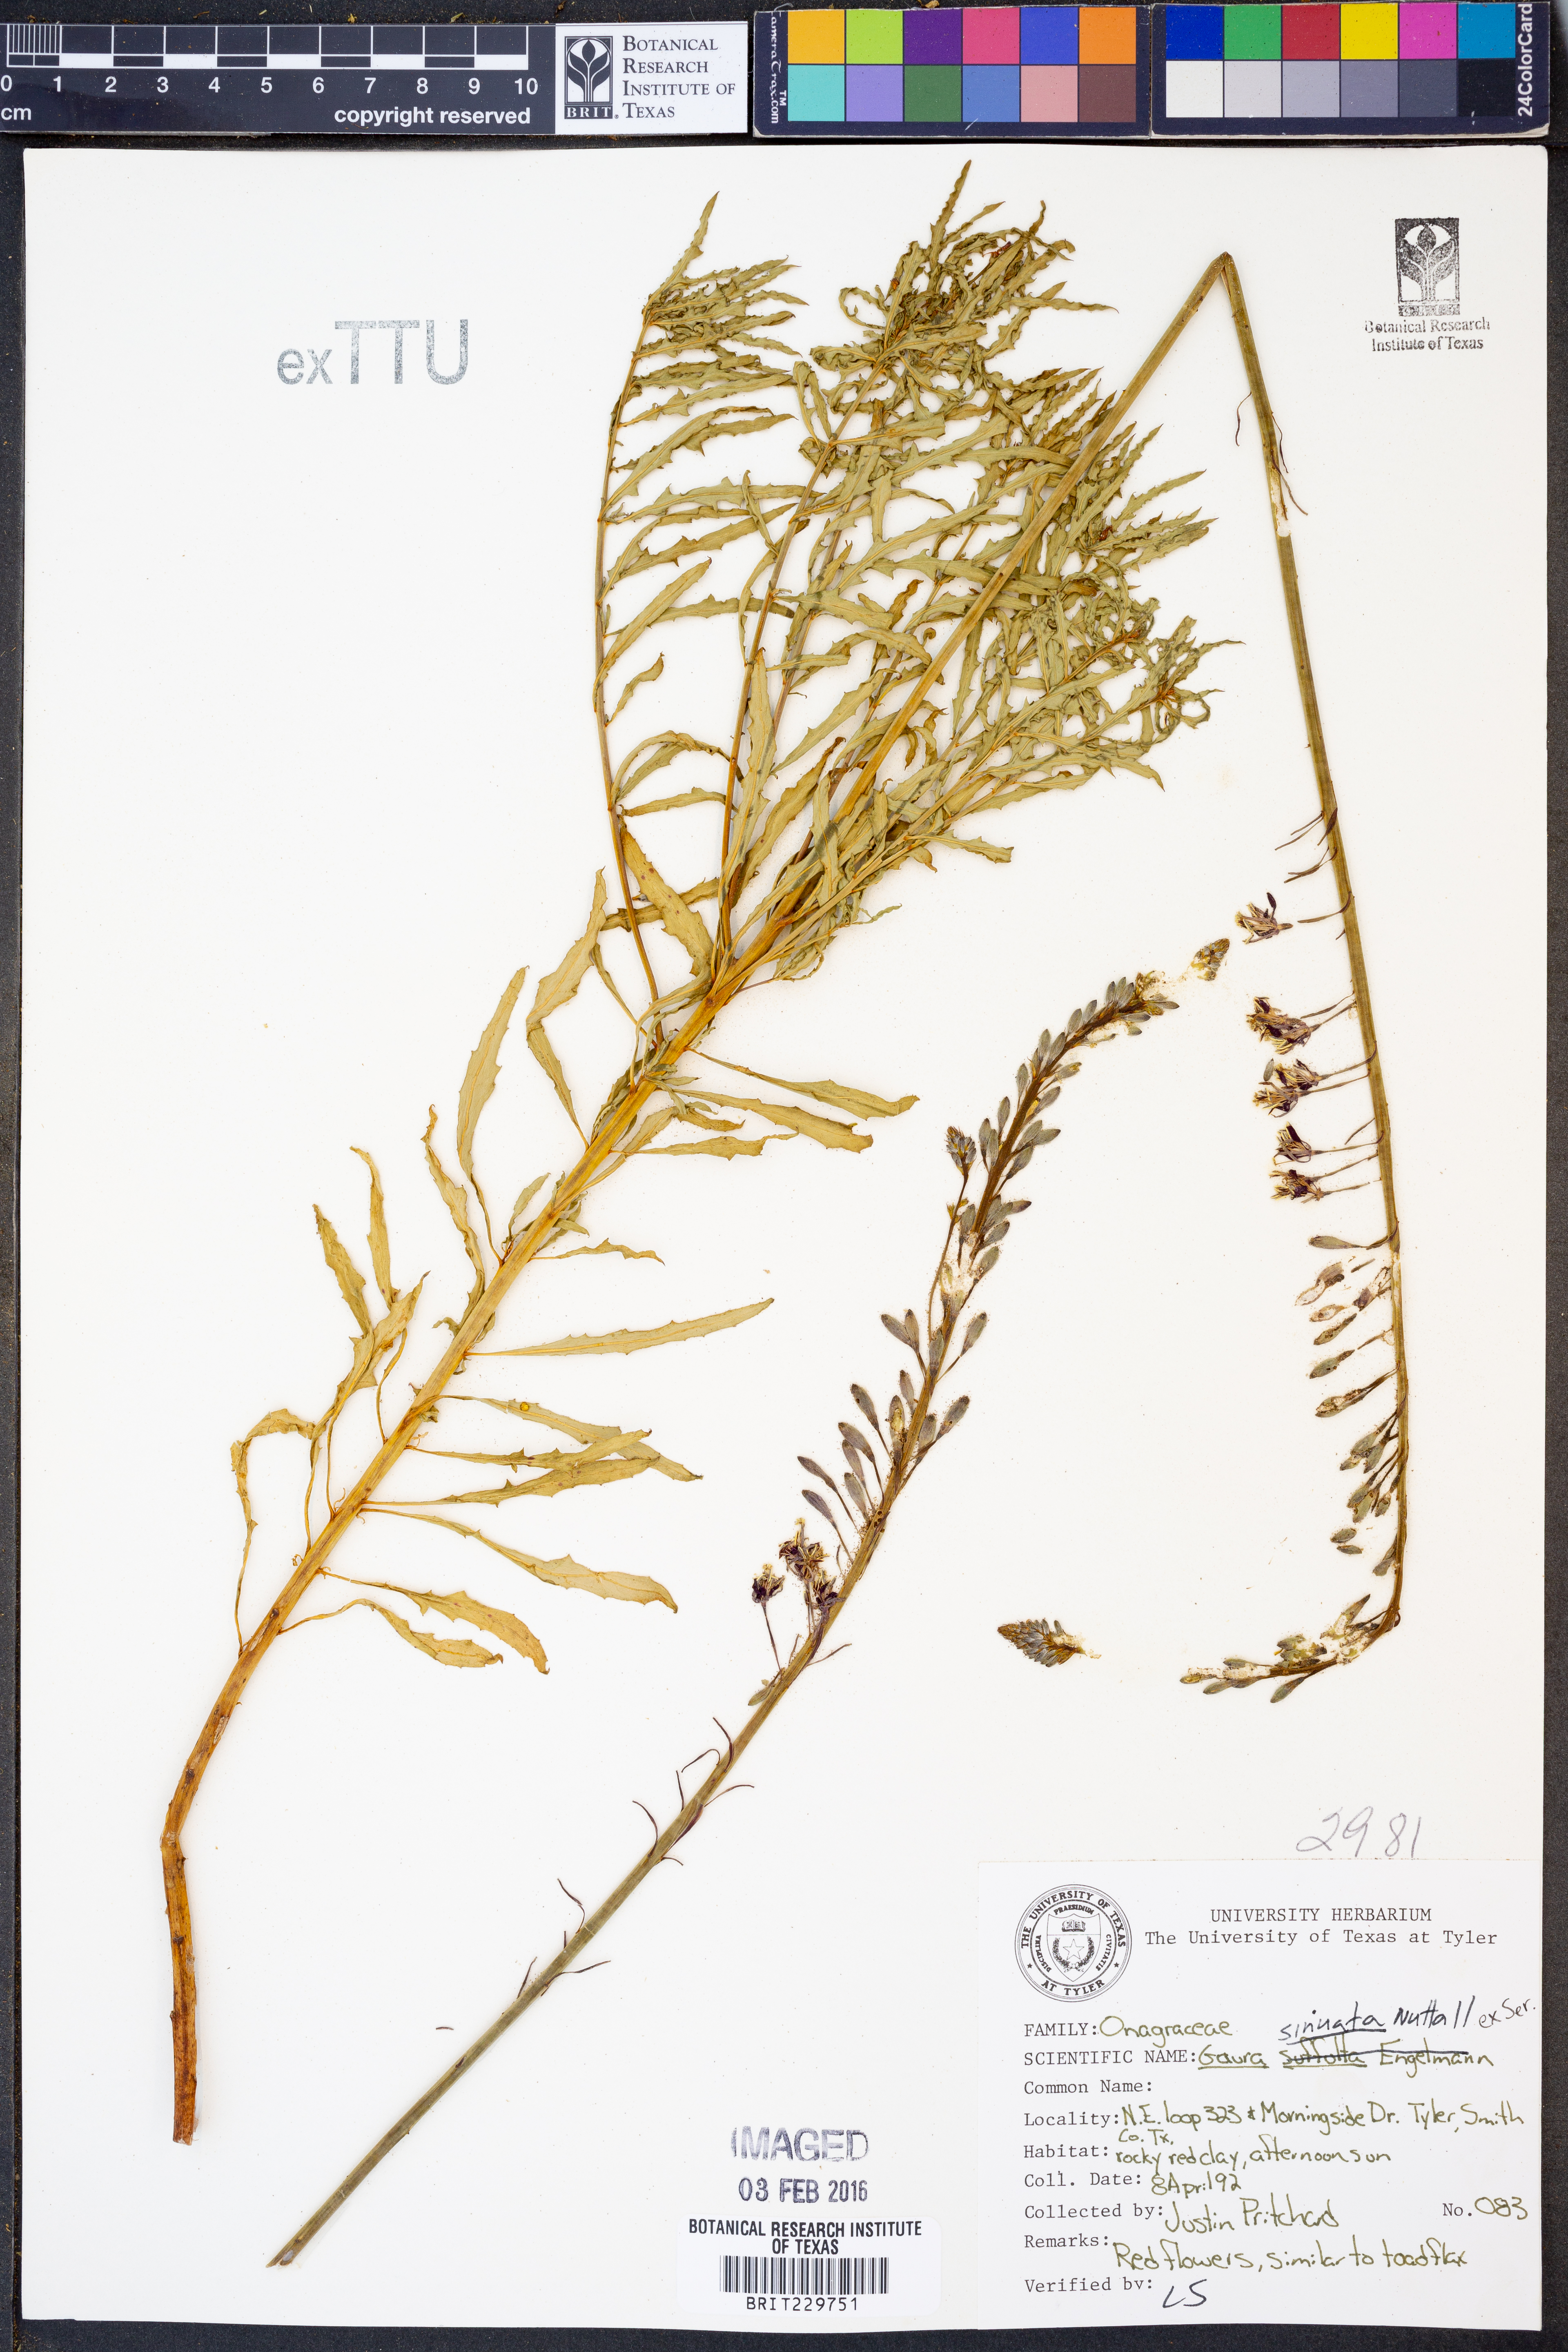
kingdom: Plantae
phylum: Tracheophyta
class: Magnoliopsida
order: Myrtales
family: Onagraceae
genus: Oenothera
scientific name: Oenothera sinuosa
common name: Wavyleaf beeblossom
